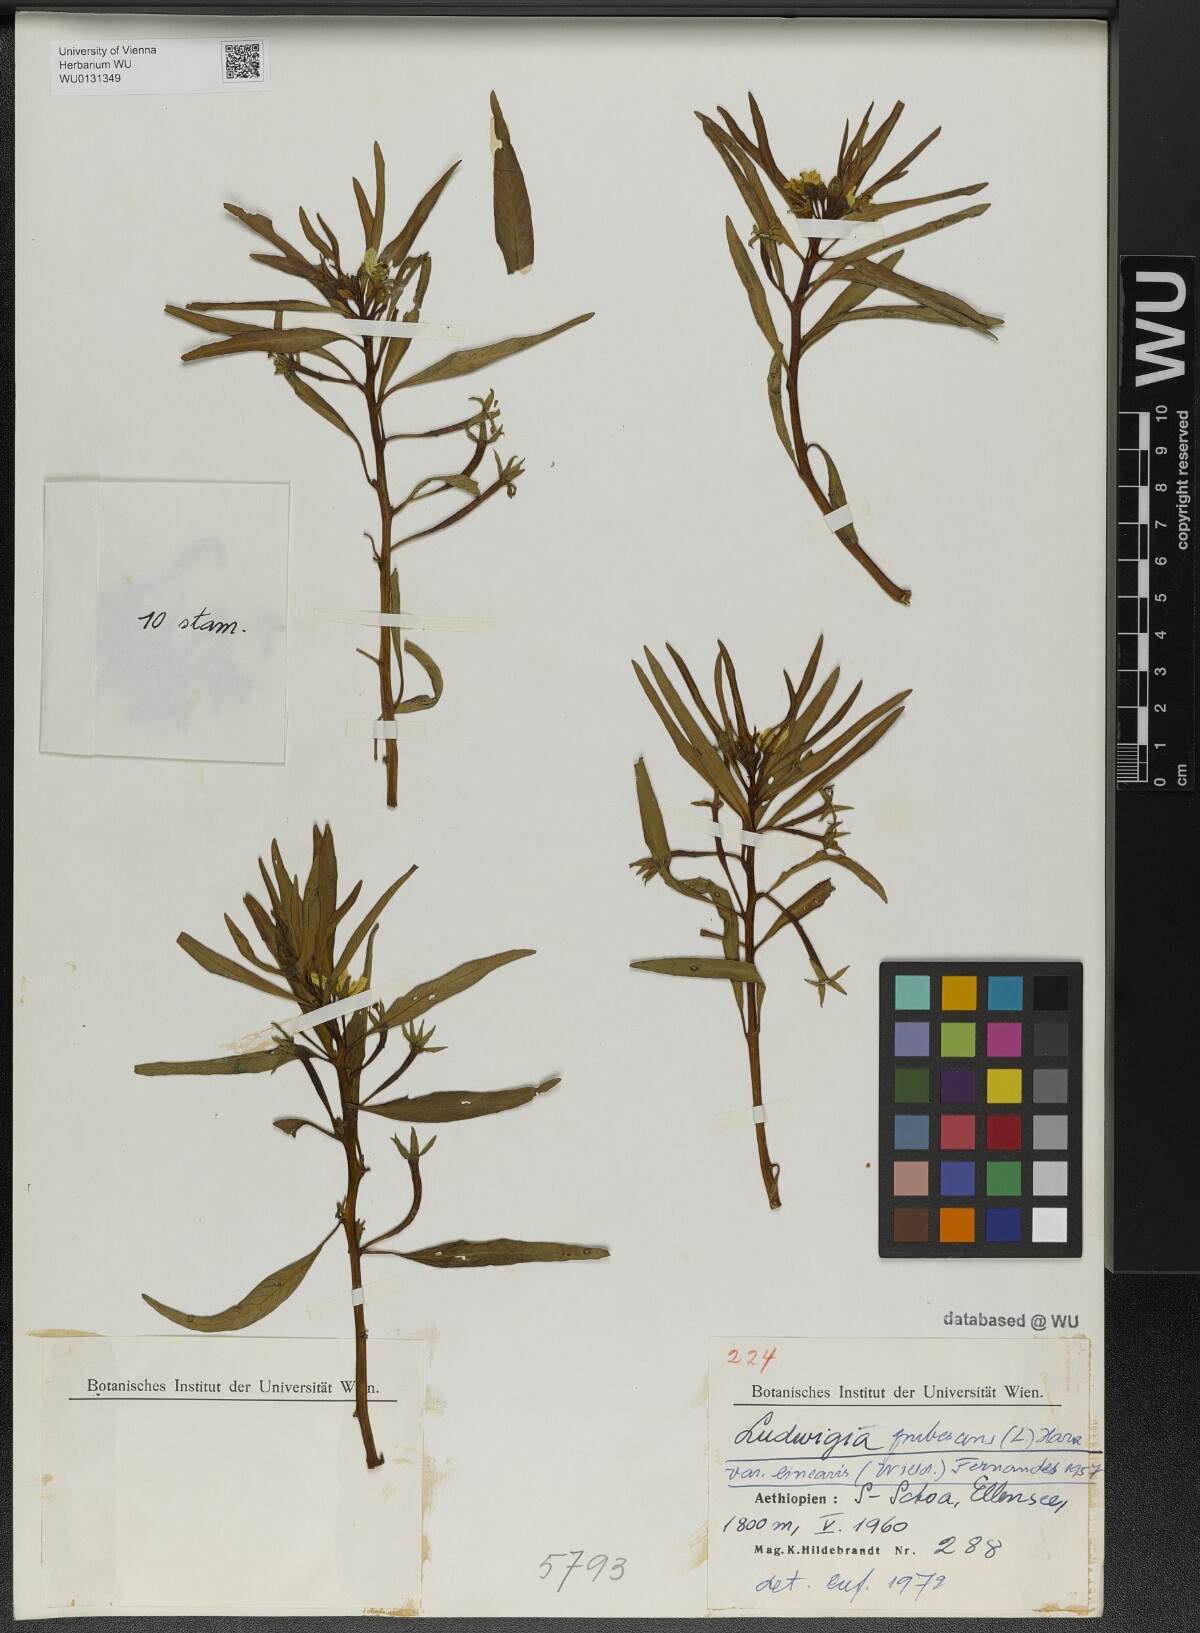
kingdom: Plantae
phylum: Tracheophyta
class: Magnoliopsida
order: Myrtales
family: Onagraceae
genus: Ludwigia
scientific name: Ludwigia octovalvis
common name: Water-primrose
